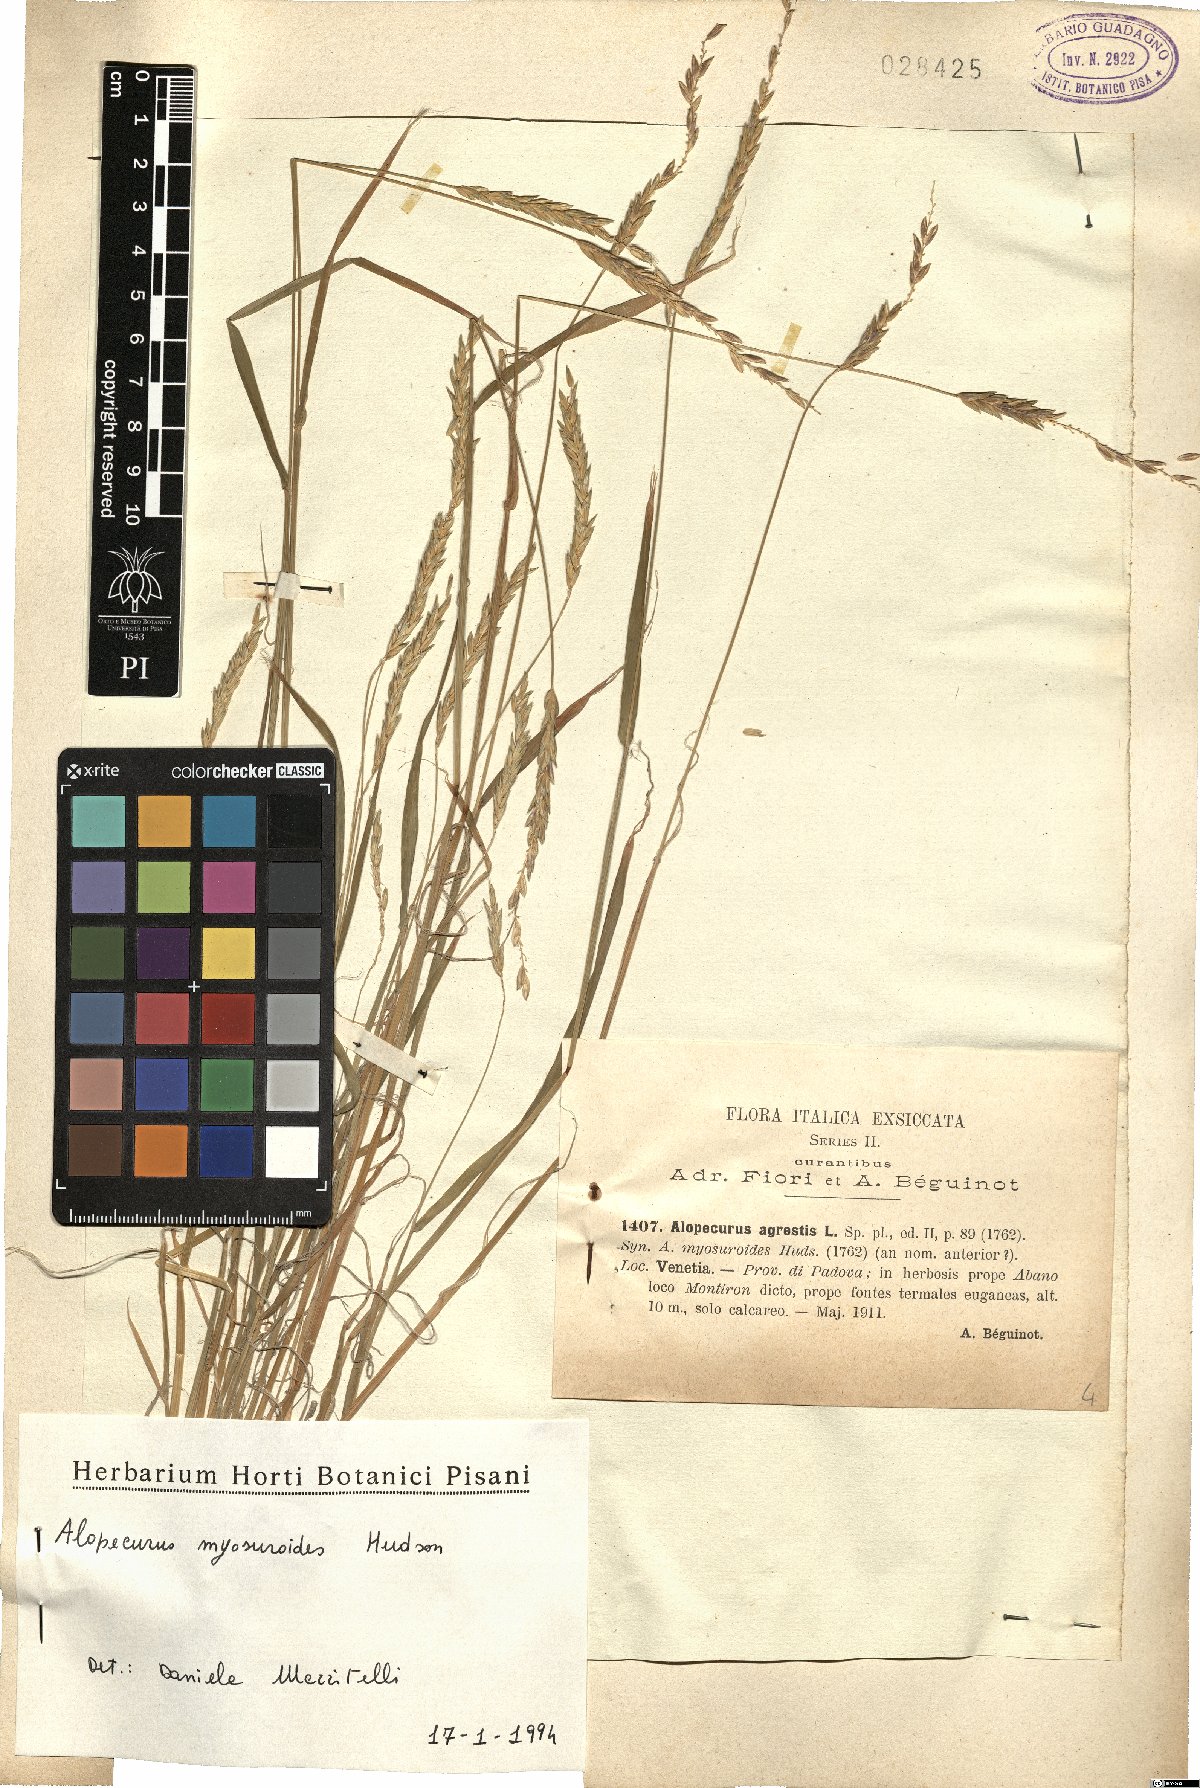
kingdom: Plantae
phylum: Tracheophyta
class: Liliopsida
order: Poales
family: Poaceae
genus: Alopecurus
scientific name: Alopecurus myosuroides
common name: Black-grass
